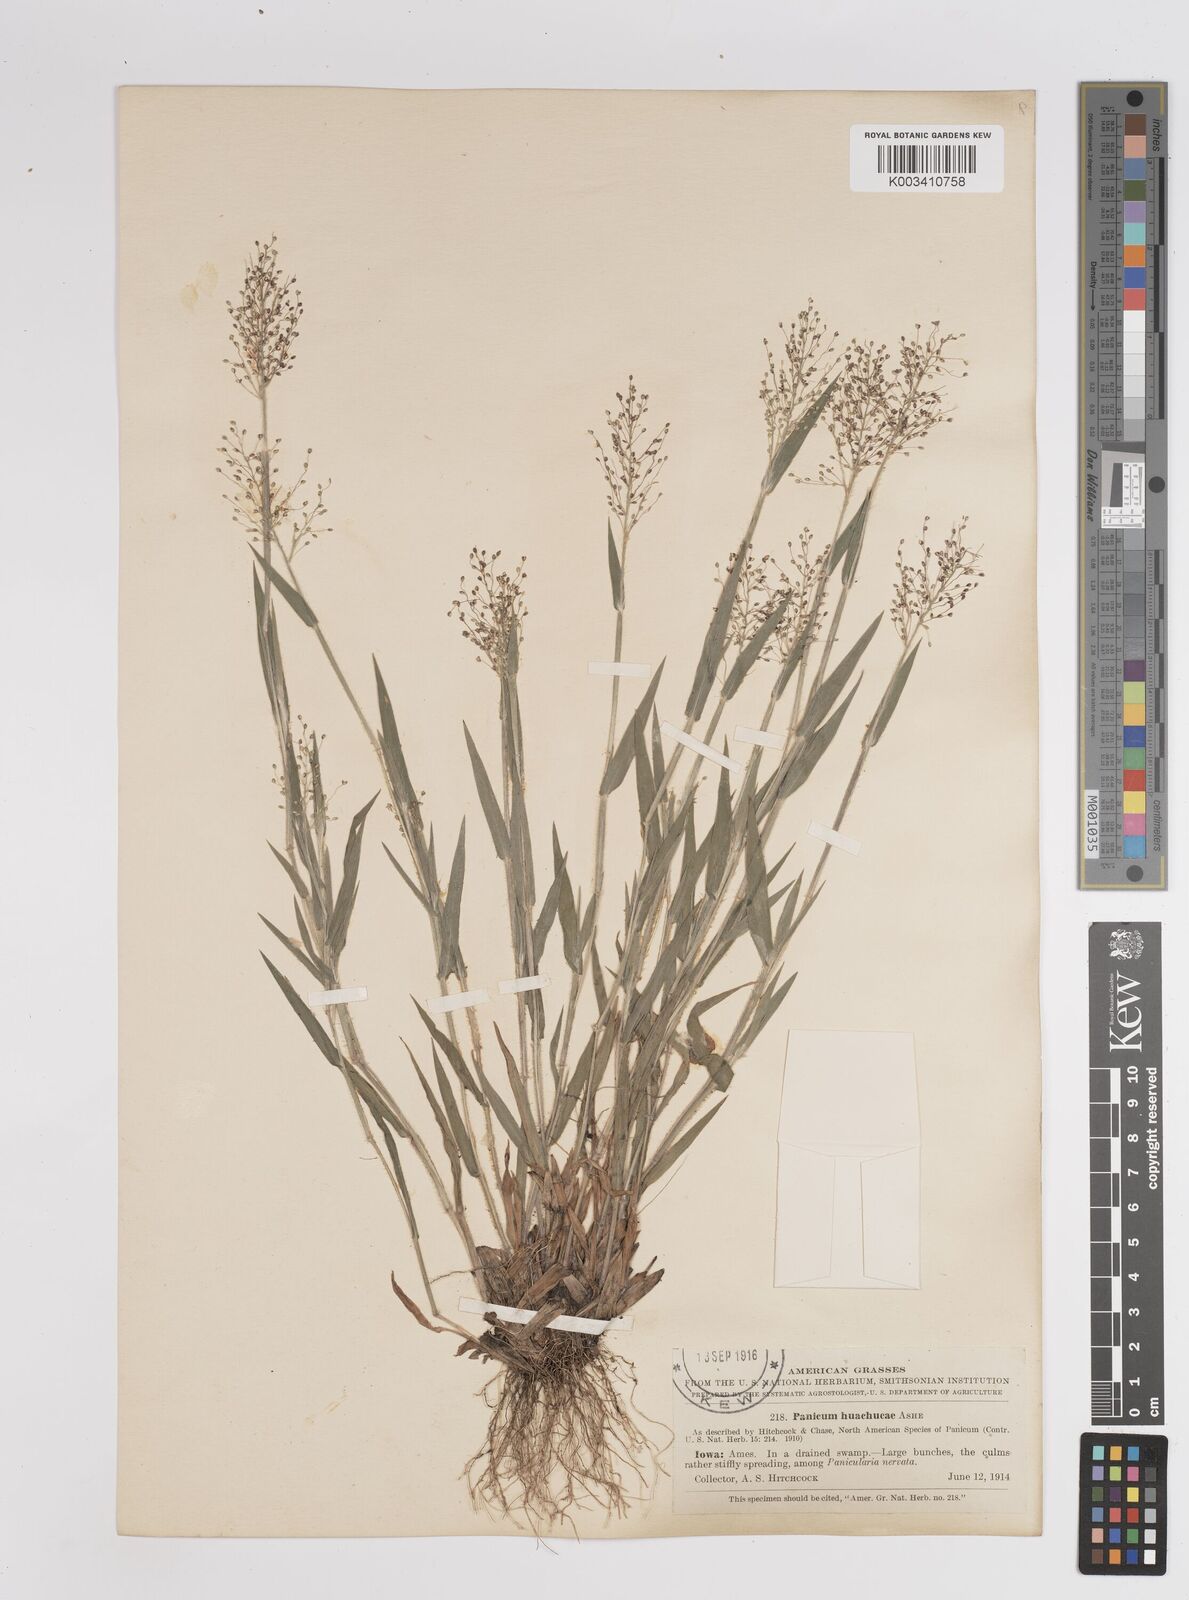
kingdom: Plantae
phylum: Tracheophyta
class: Liliopsida
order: Poales
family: Poaceae
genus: Dichanthelium
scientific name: Dichanthelium acuminatum
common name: Hairy panic grass
